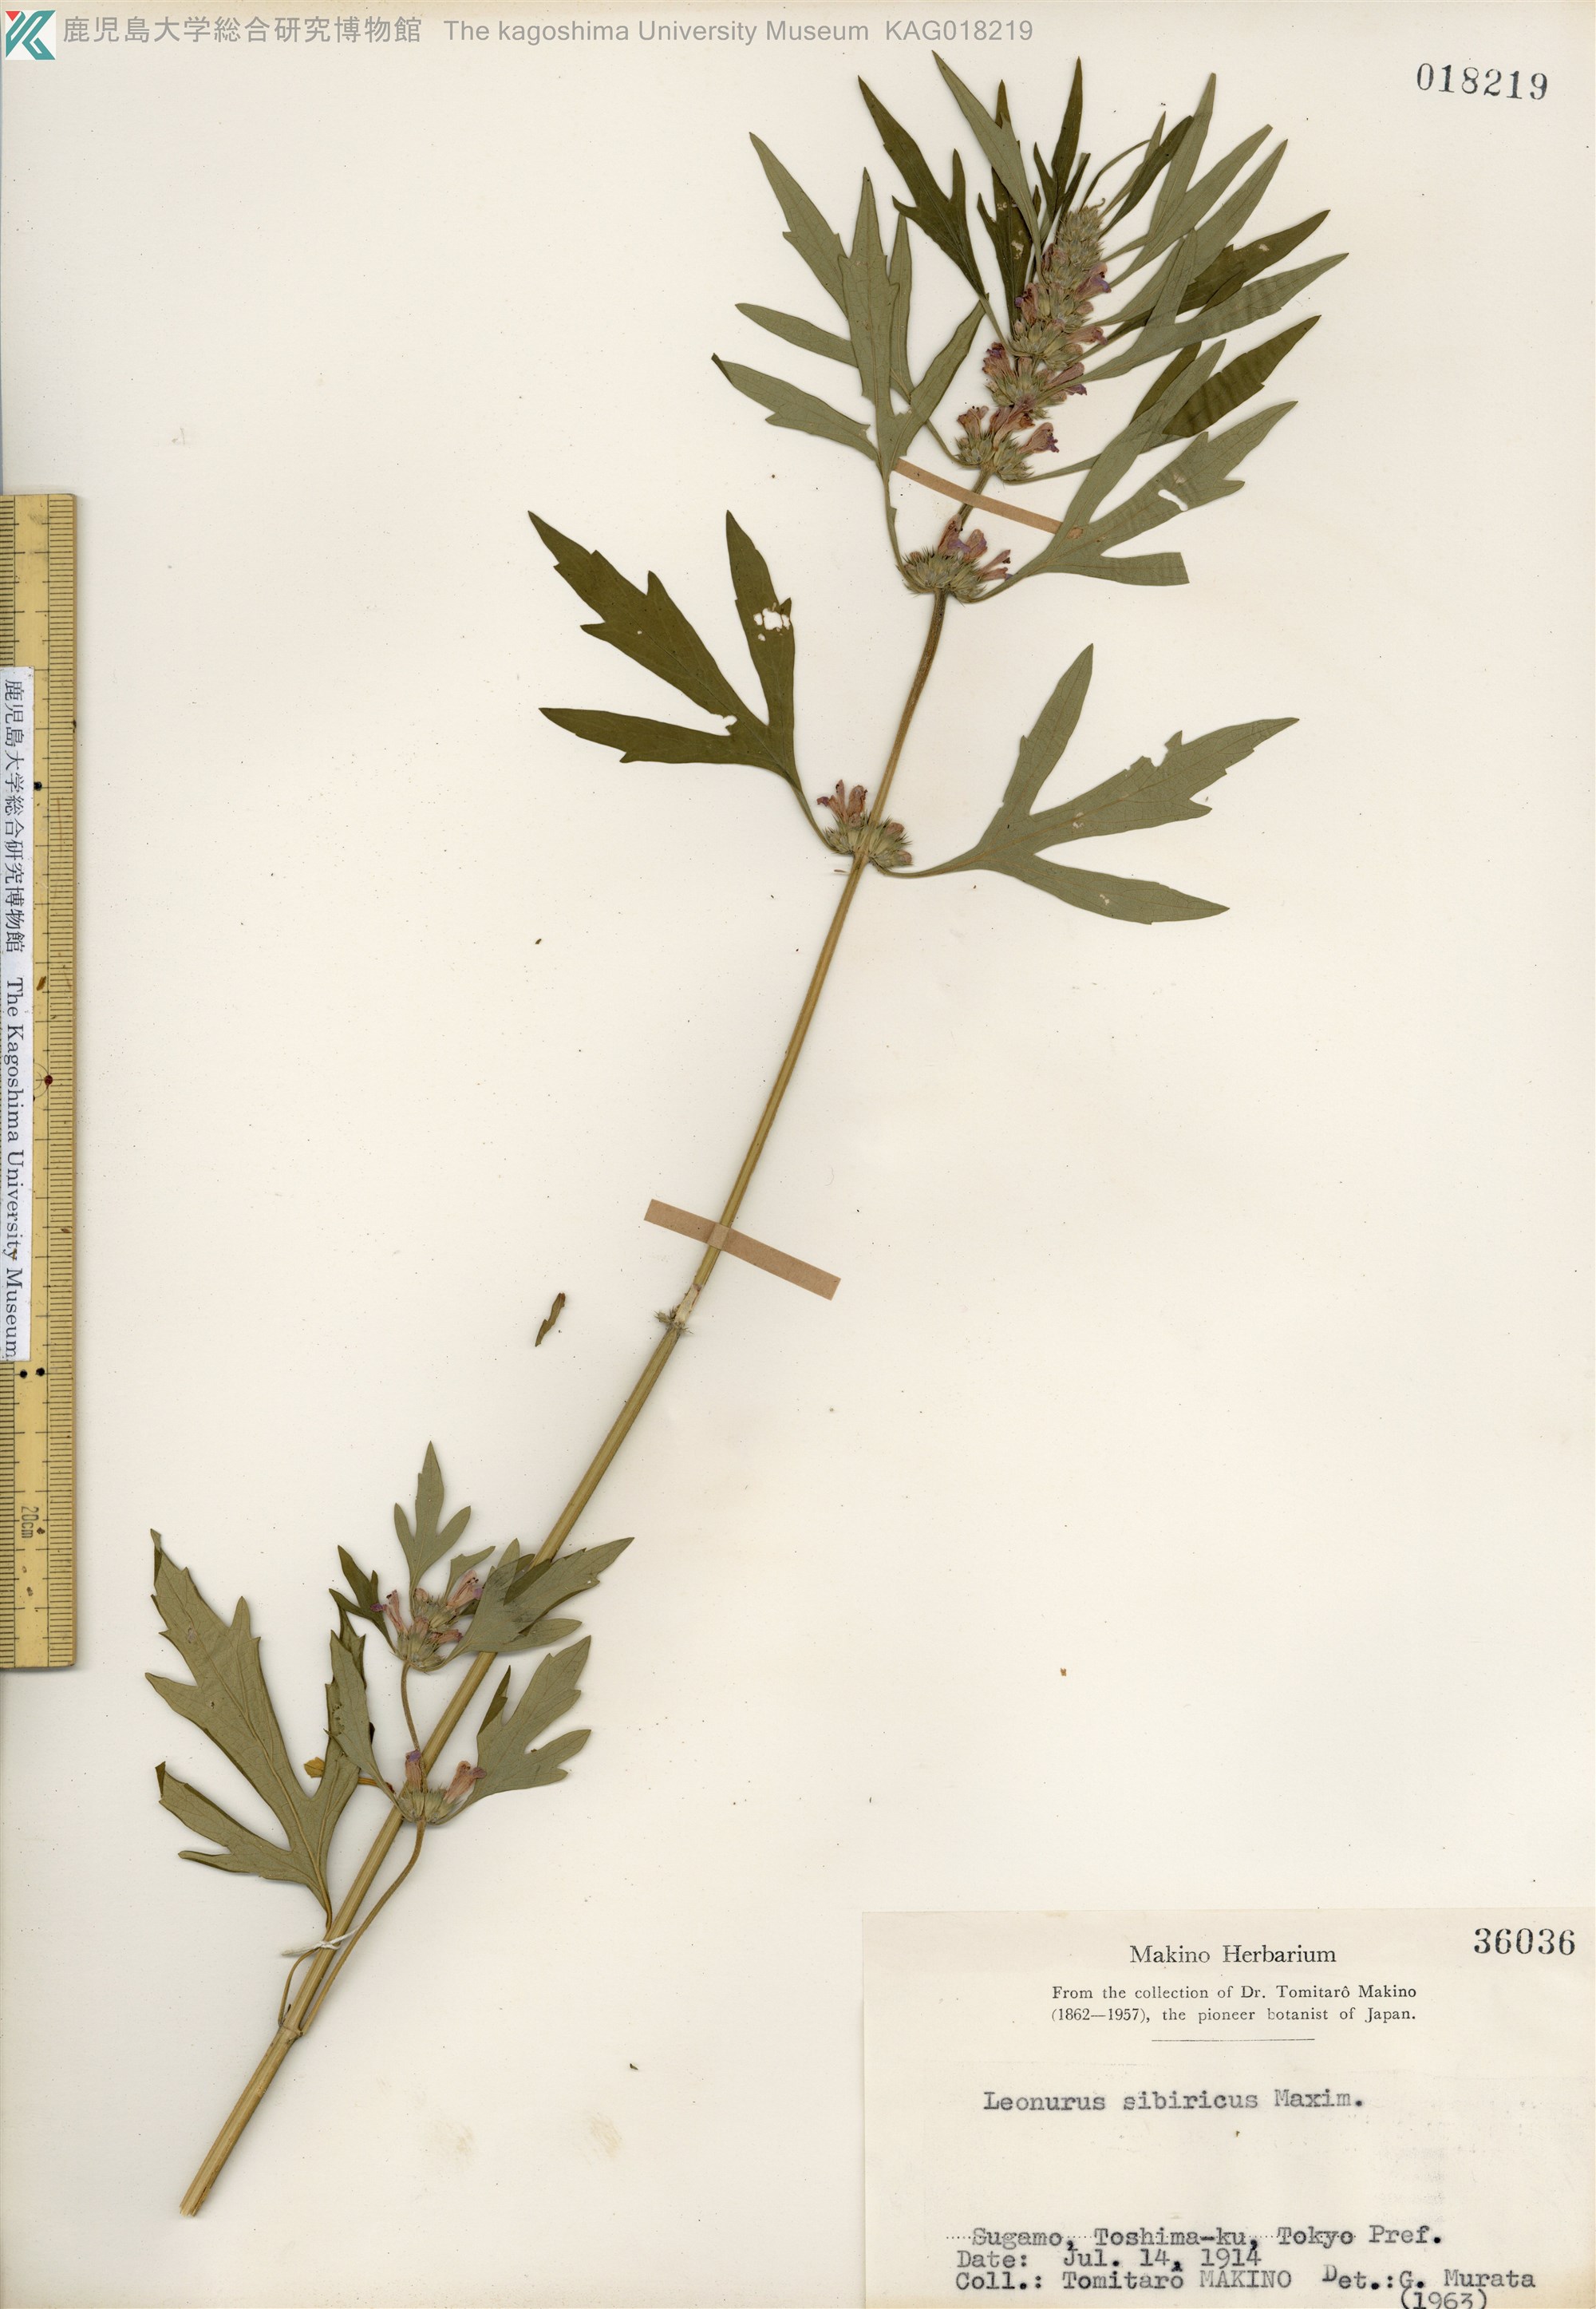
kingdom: Plantae
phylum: Tracheophyta
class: Magnoliopsida
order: Lamiales
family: Lamiaceae
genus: Leonurus
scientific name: Leonurus japonicus
